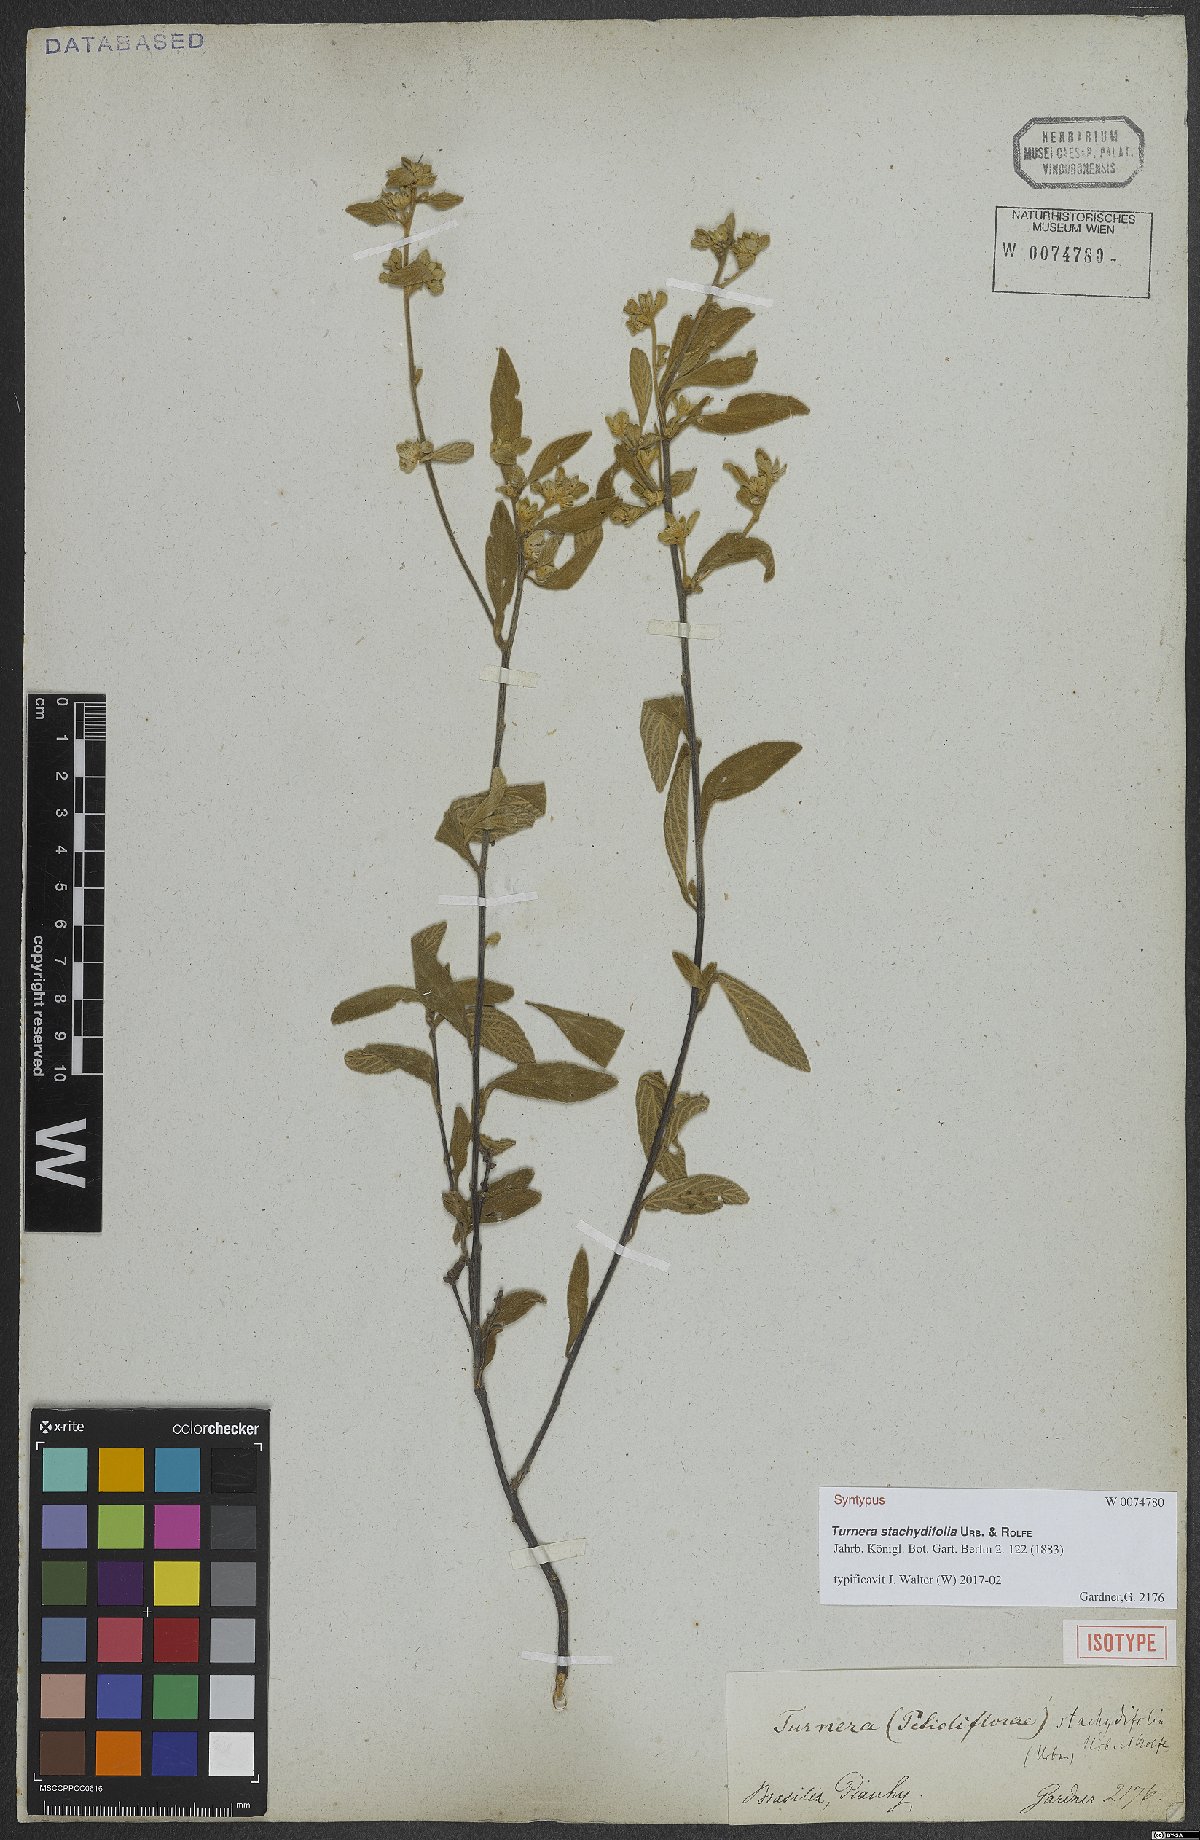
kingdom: Plantae
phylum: Tracheophyta
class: Magnoliopsida
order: Malpighiales
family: Turneraceae
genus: Turnera
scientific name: Turnera stachydifolia
